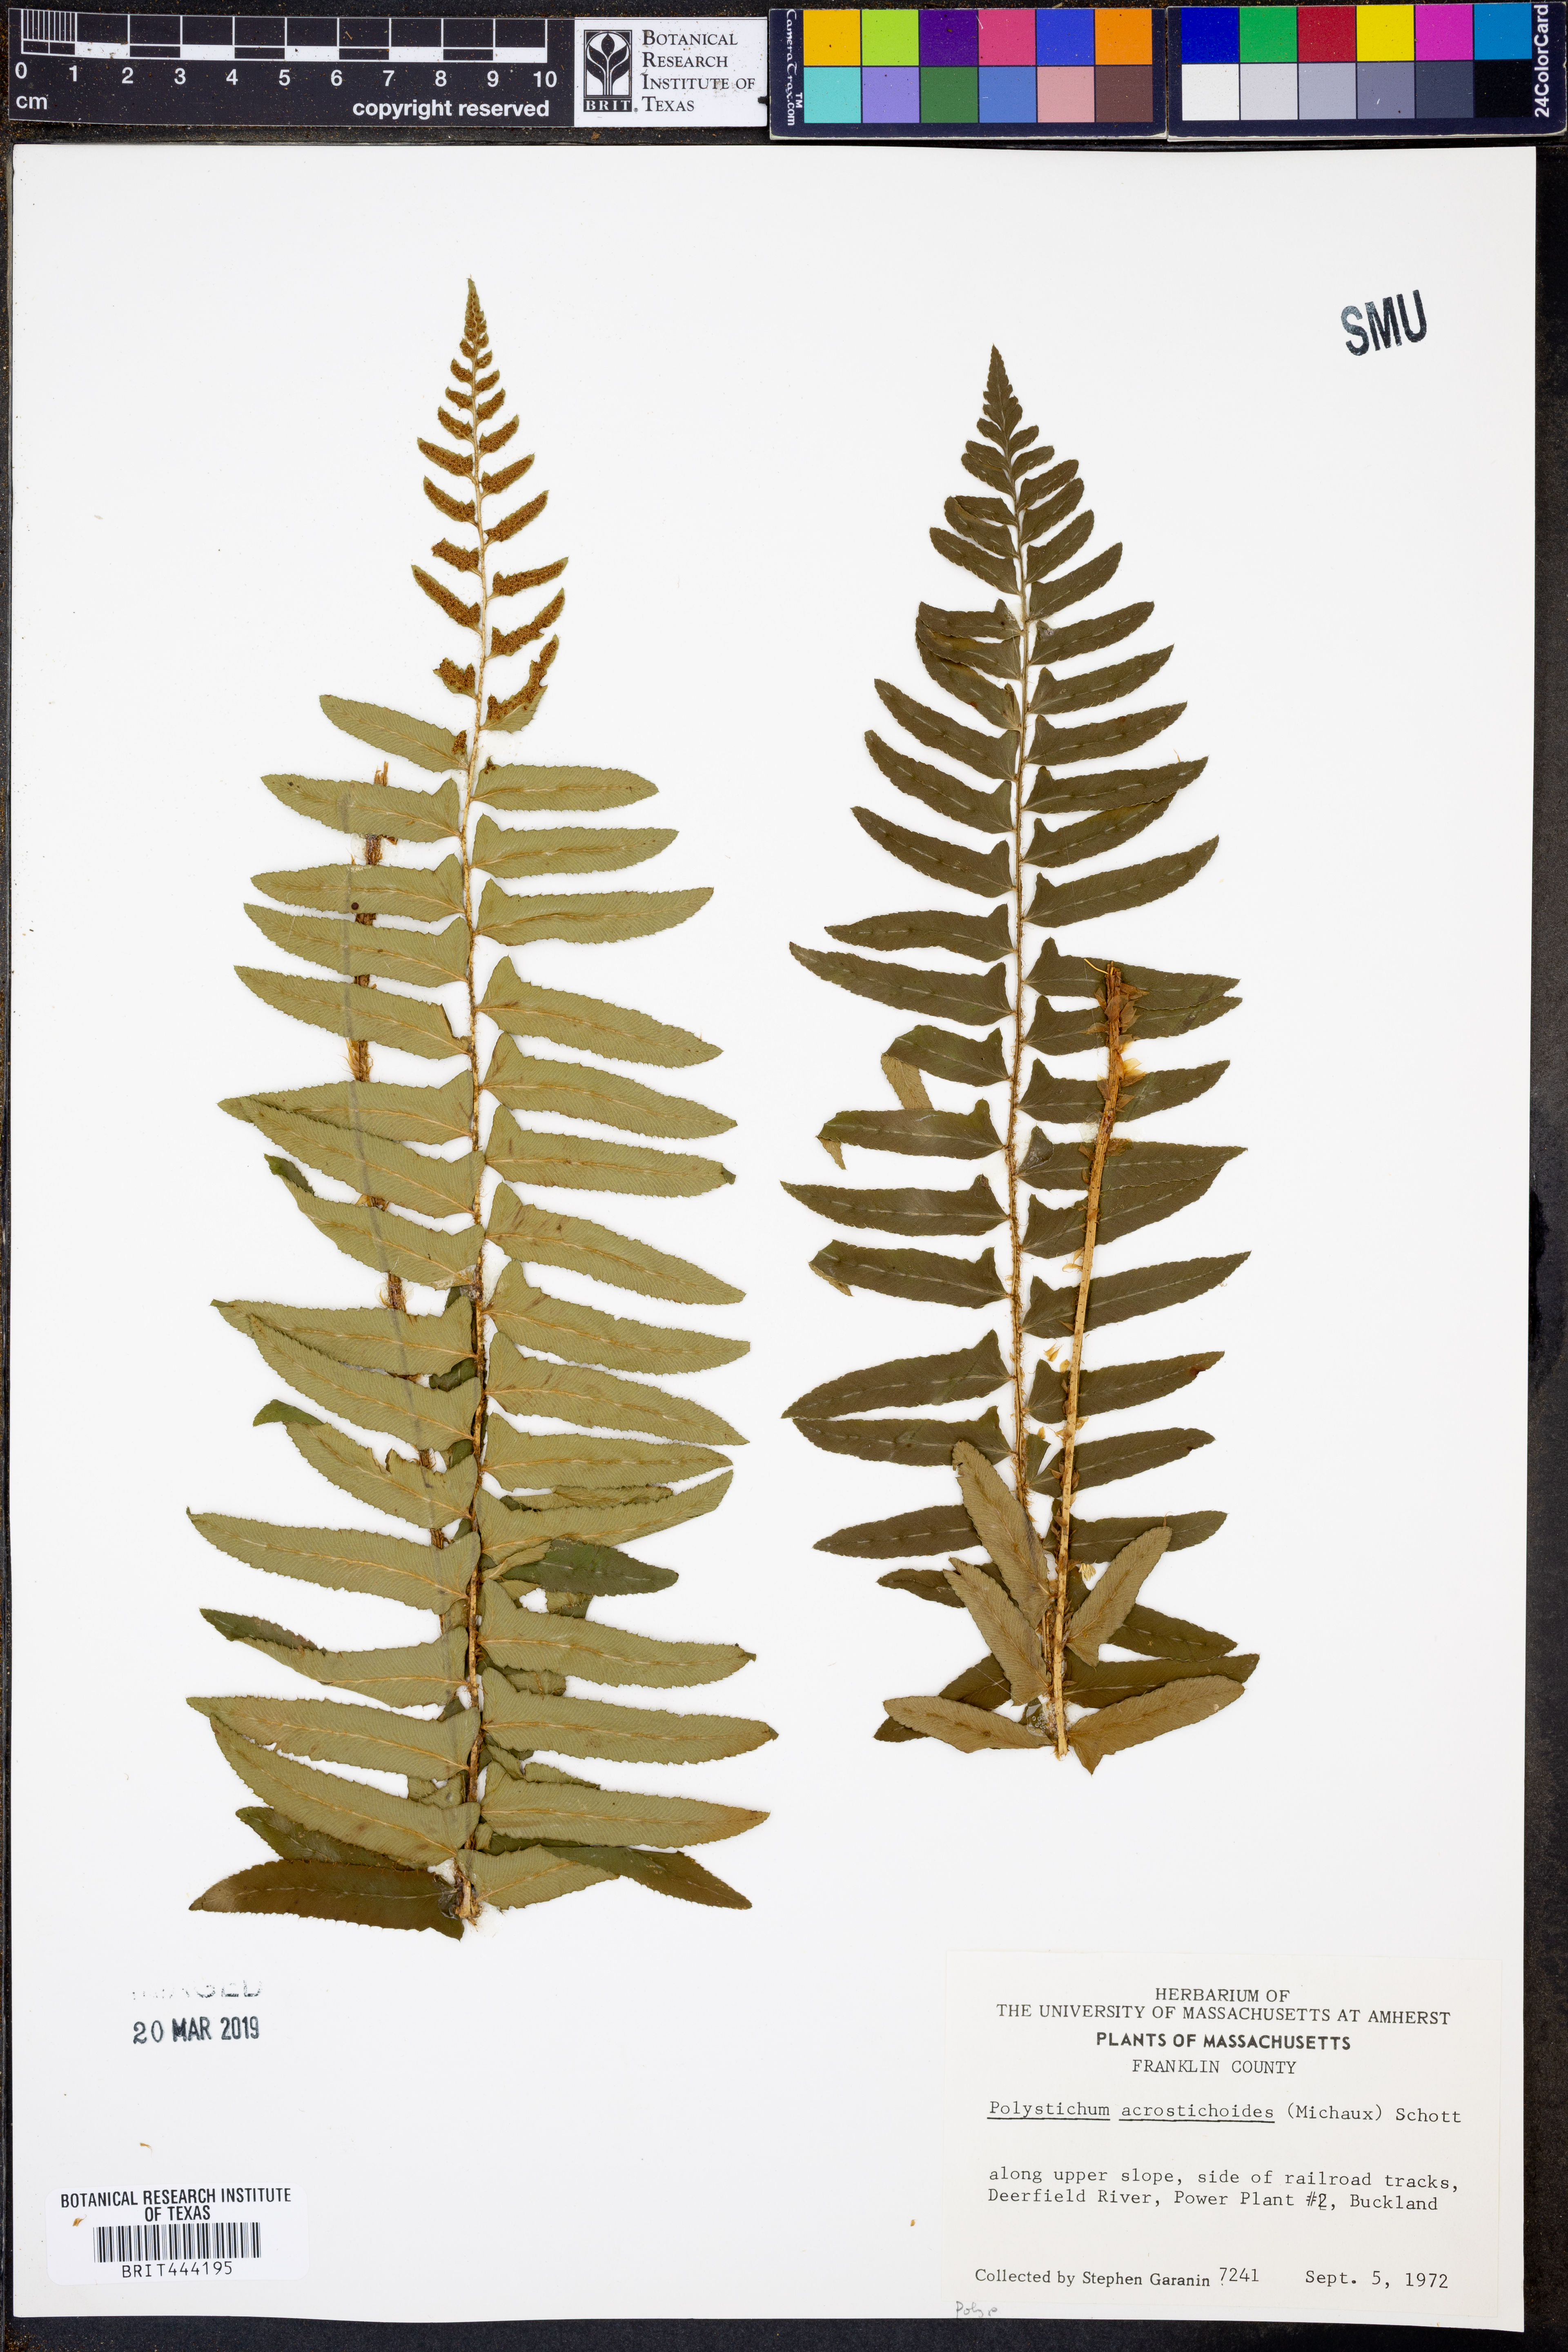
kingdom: Plantae
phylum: Tracheophyta
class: Polypodiopsida
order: Polypodiales
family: Dryopteridaceae
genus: Polystichum
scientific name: Polystichum acrostichoides
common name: Christmas fern
